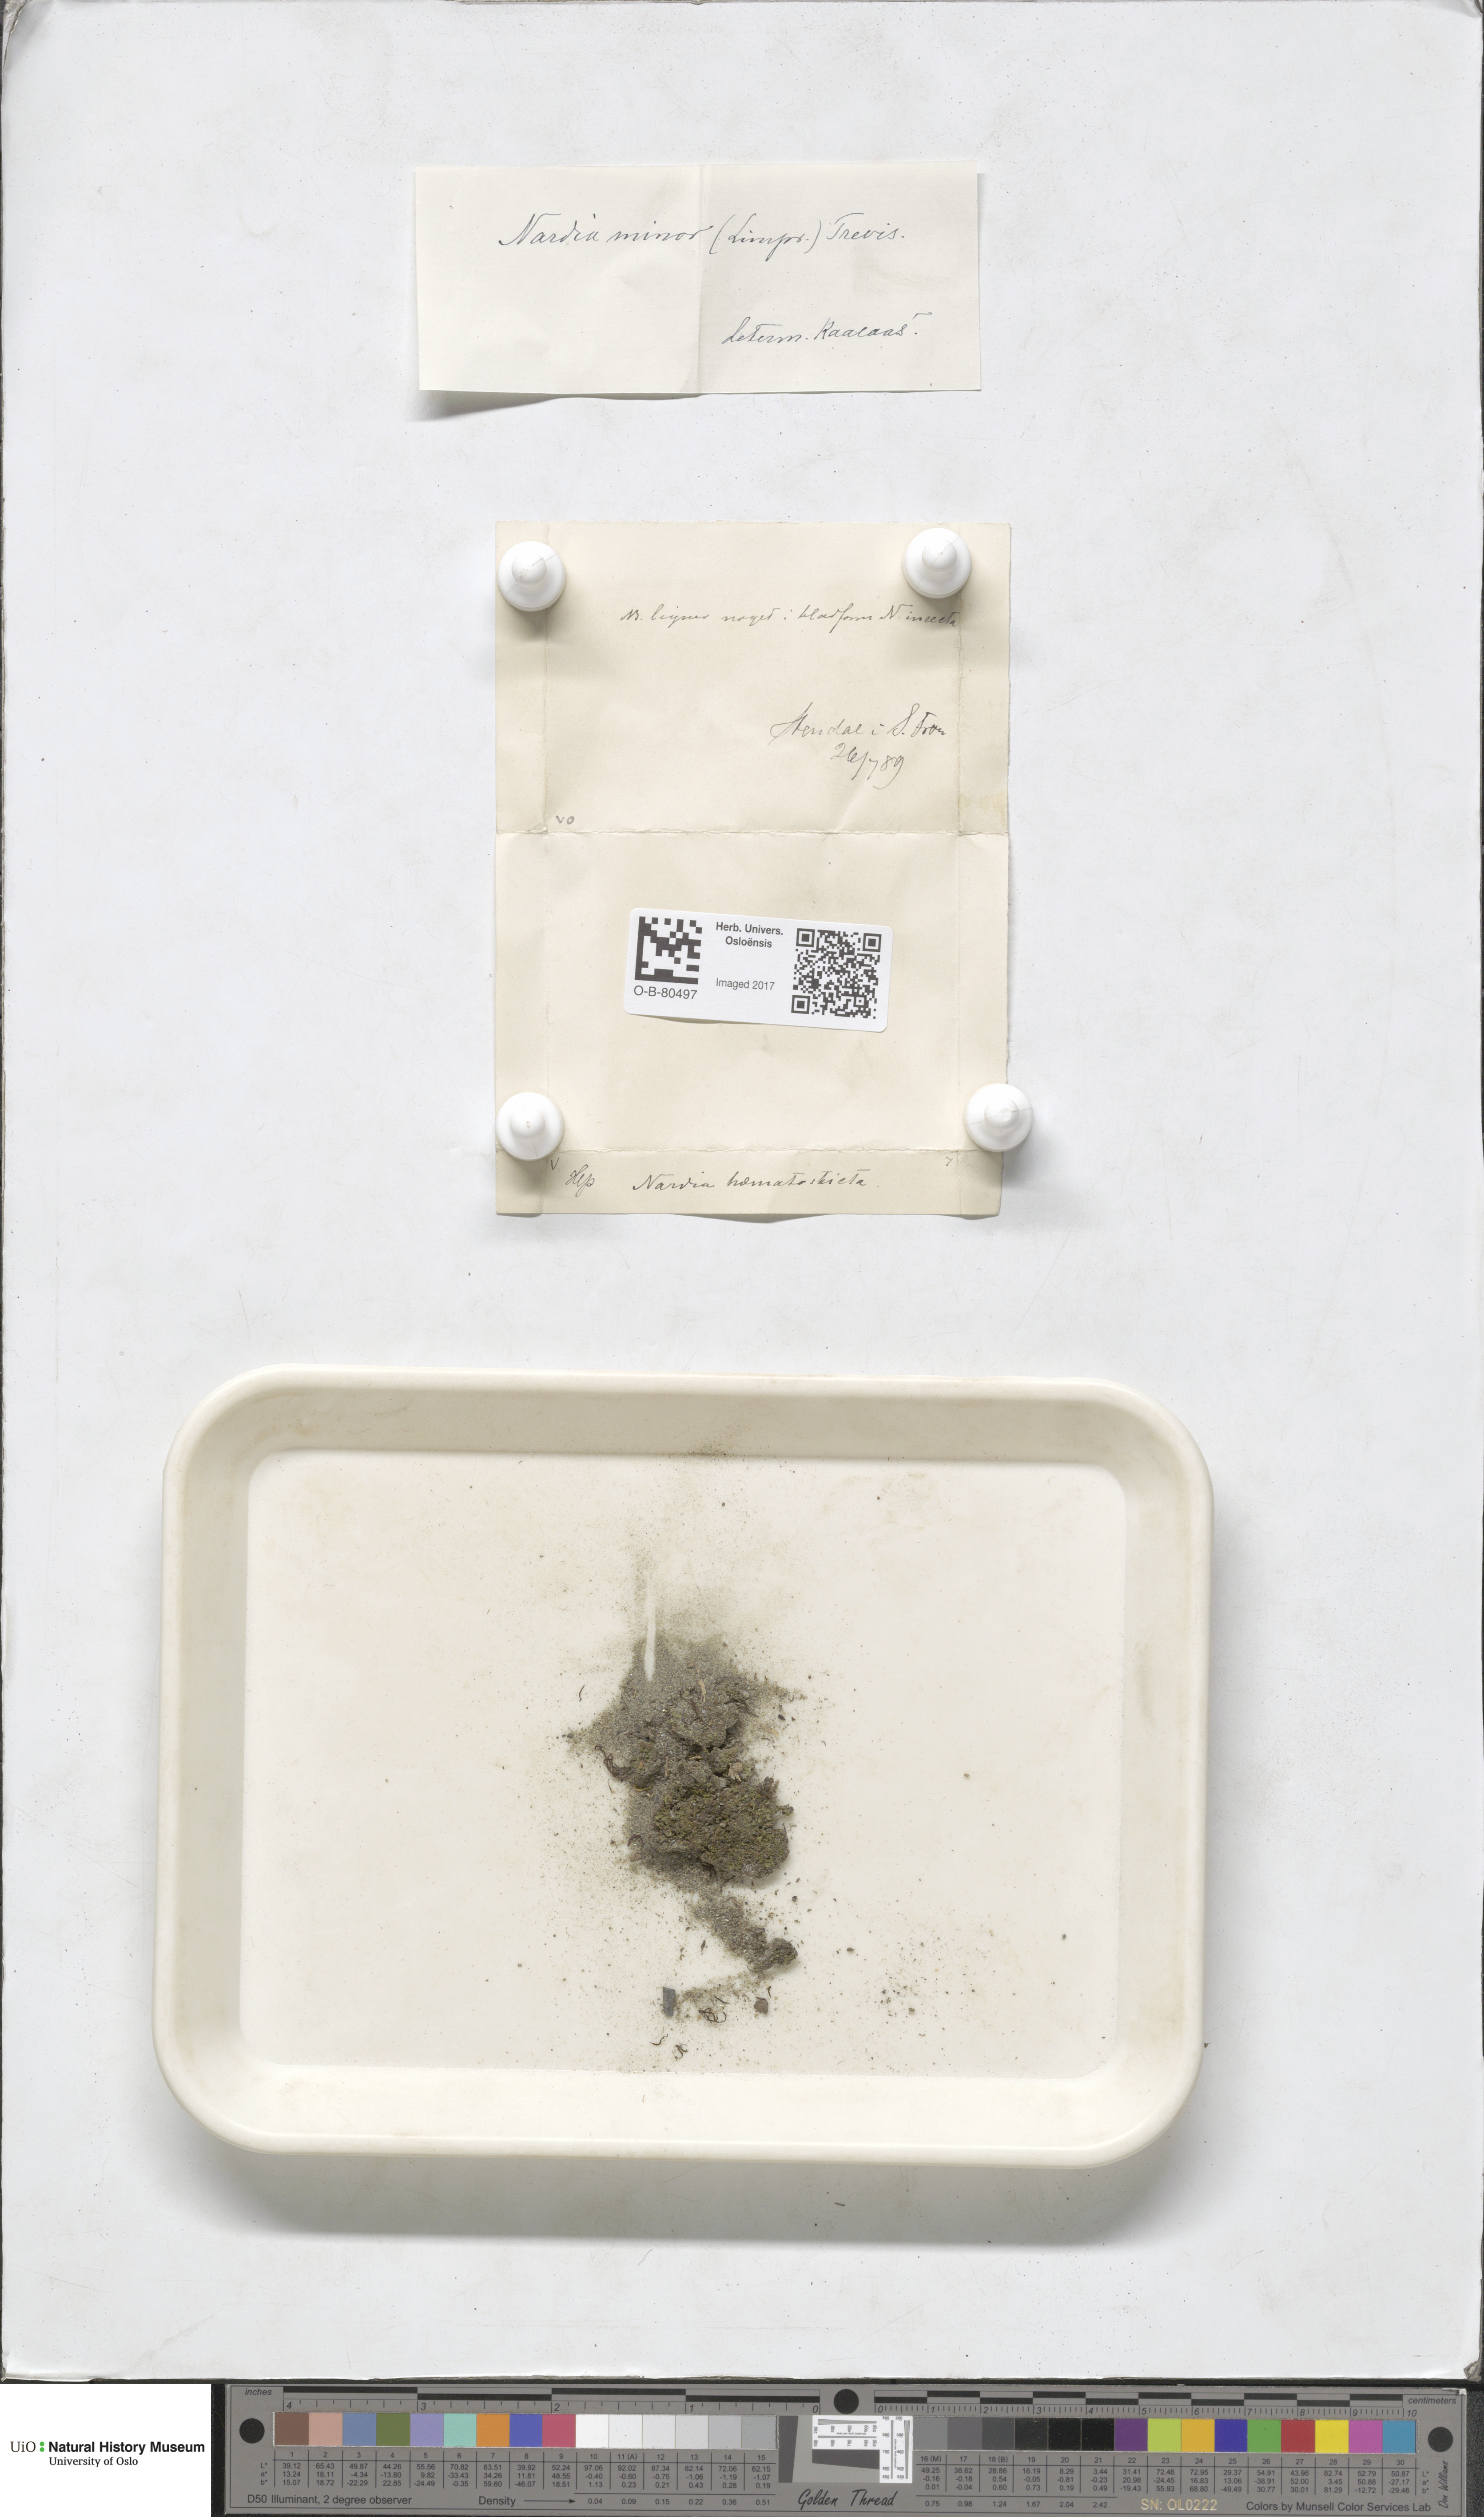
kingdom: Plantae
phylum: Marchantiophyta
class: Jungermanniopsida
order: Jungermanniales
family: Gymnomitriaceae
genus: Nardia
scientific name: Nardia geoscyphus
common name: Earth-cup flapwort
